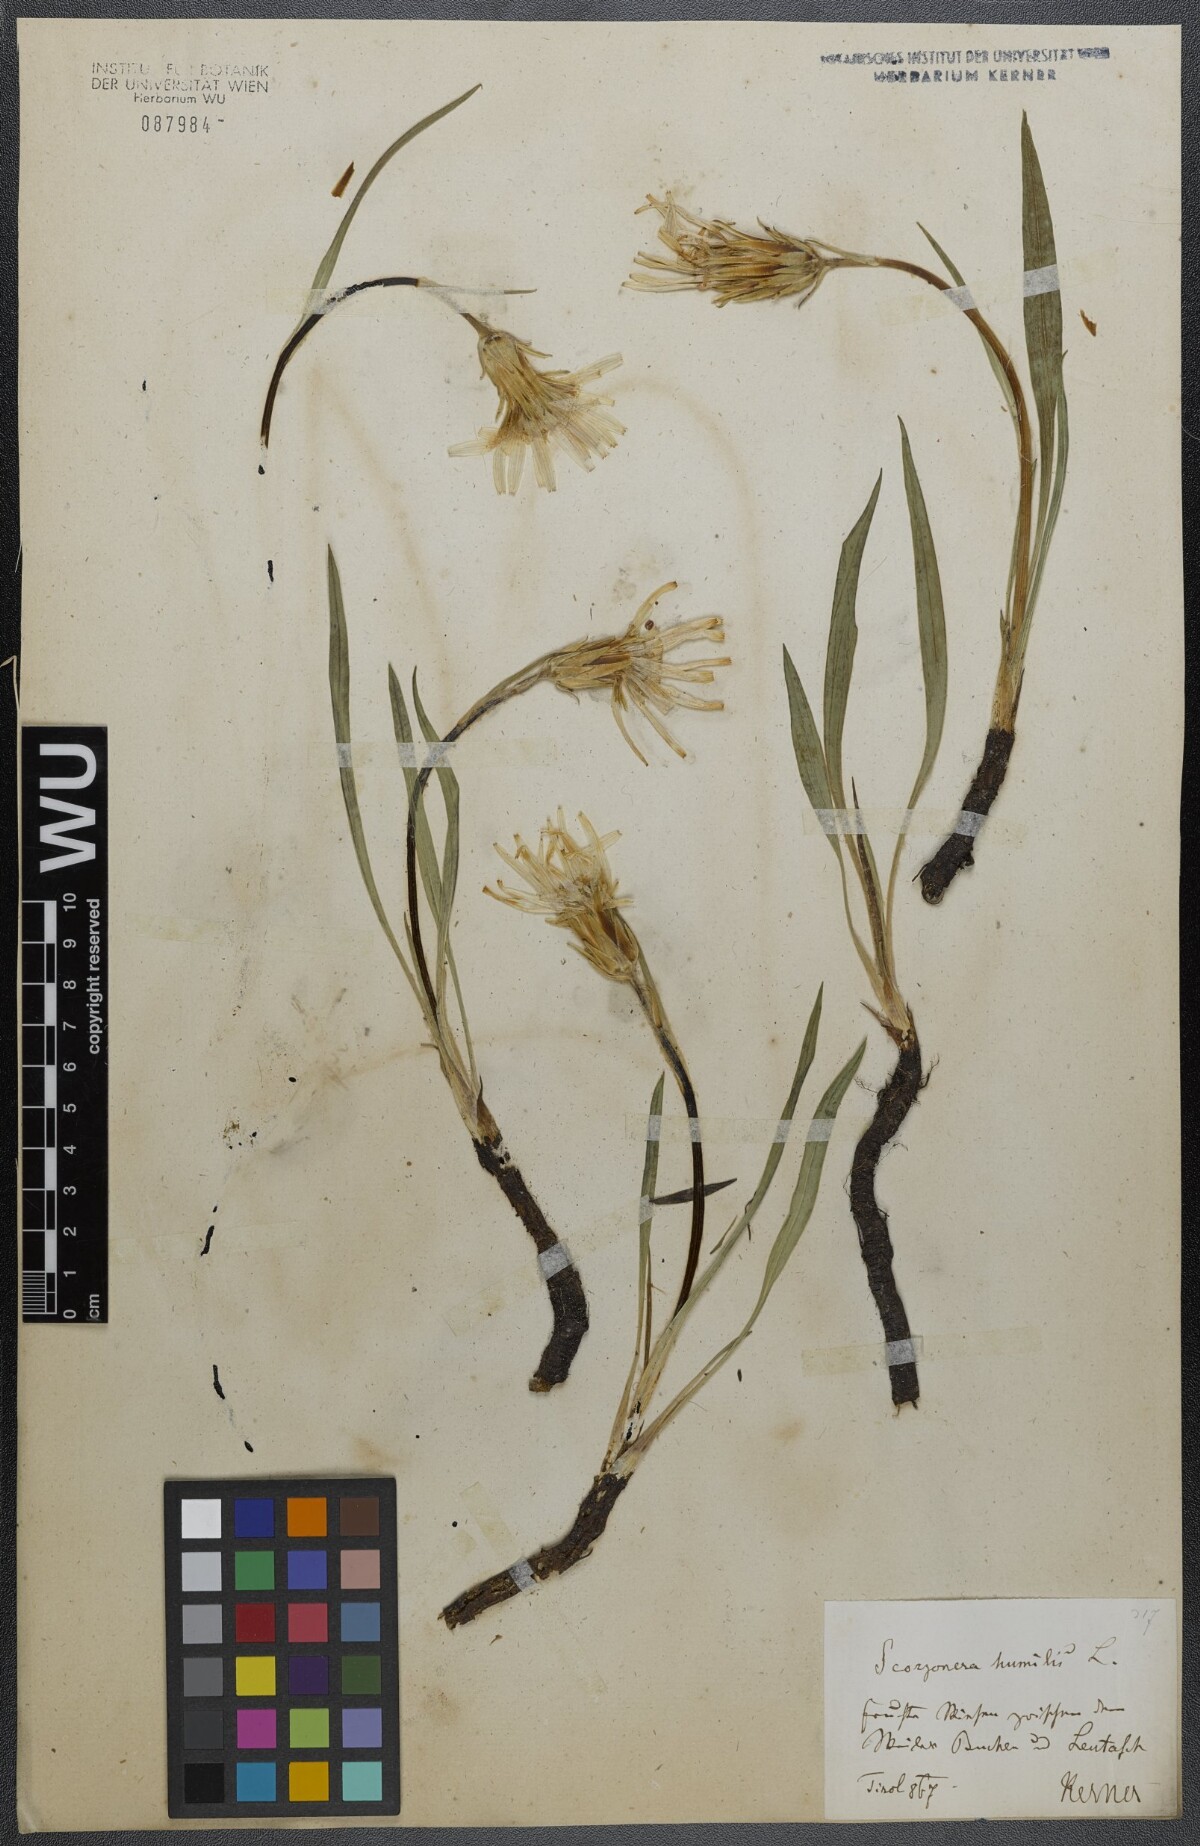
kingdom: Plantae
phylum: Tracheophyta
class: Magnoliopsida
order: Asterales
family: Asteraceae
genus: Scorzonera
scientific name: Scorzonera humilis
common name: Viper's-grass
